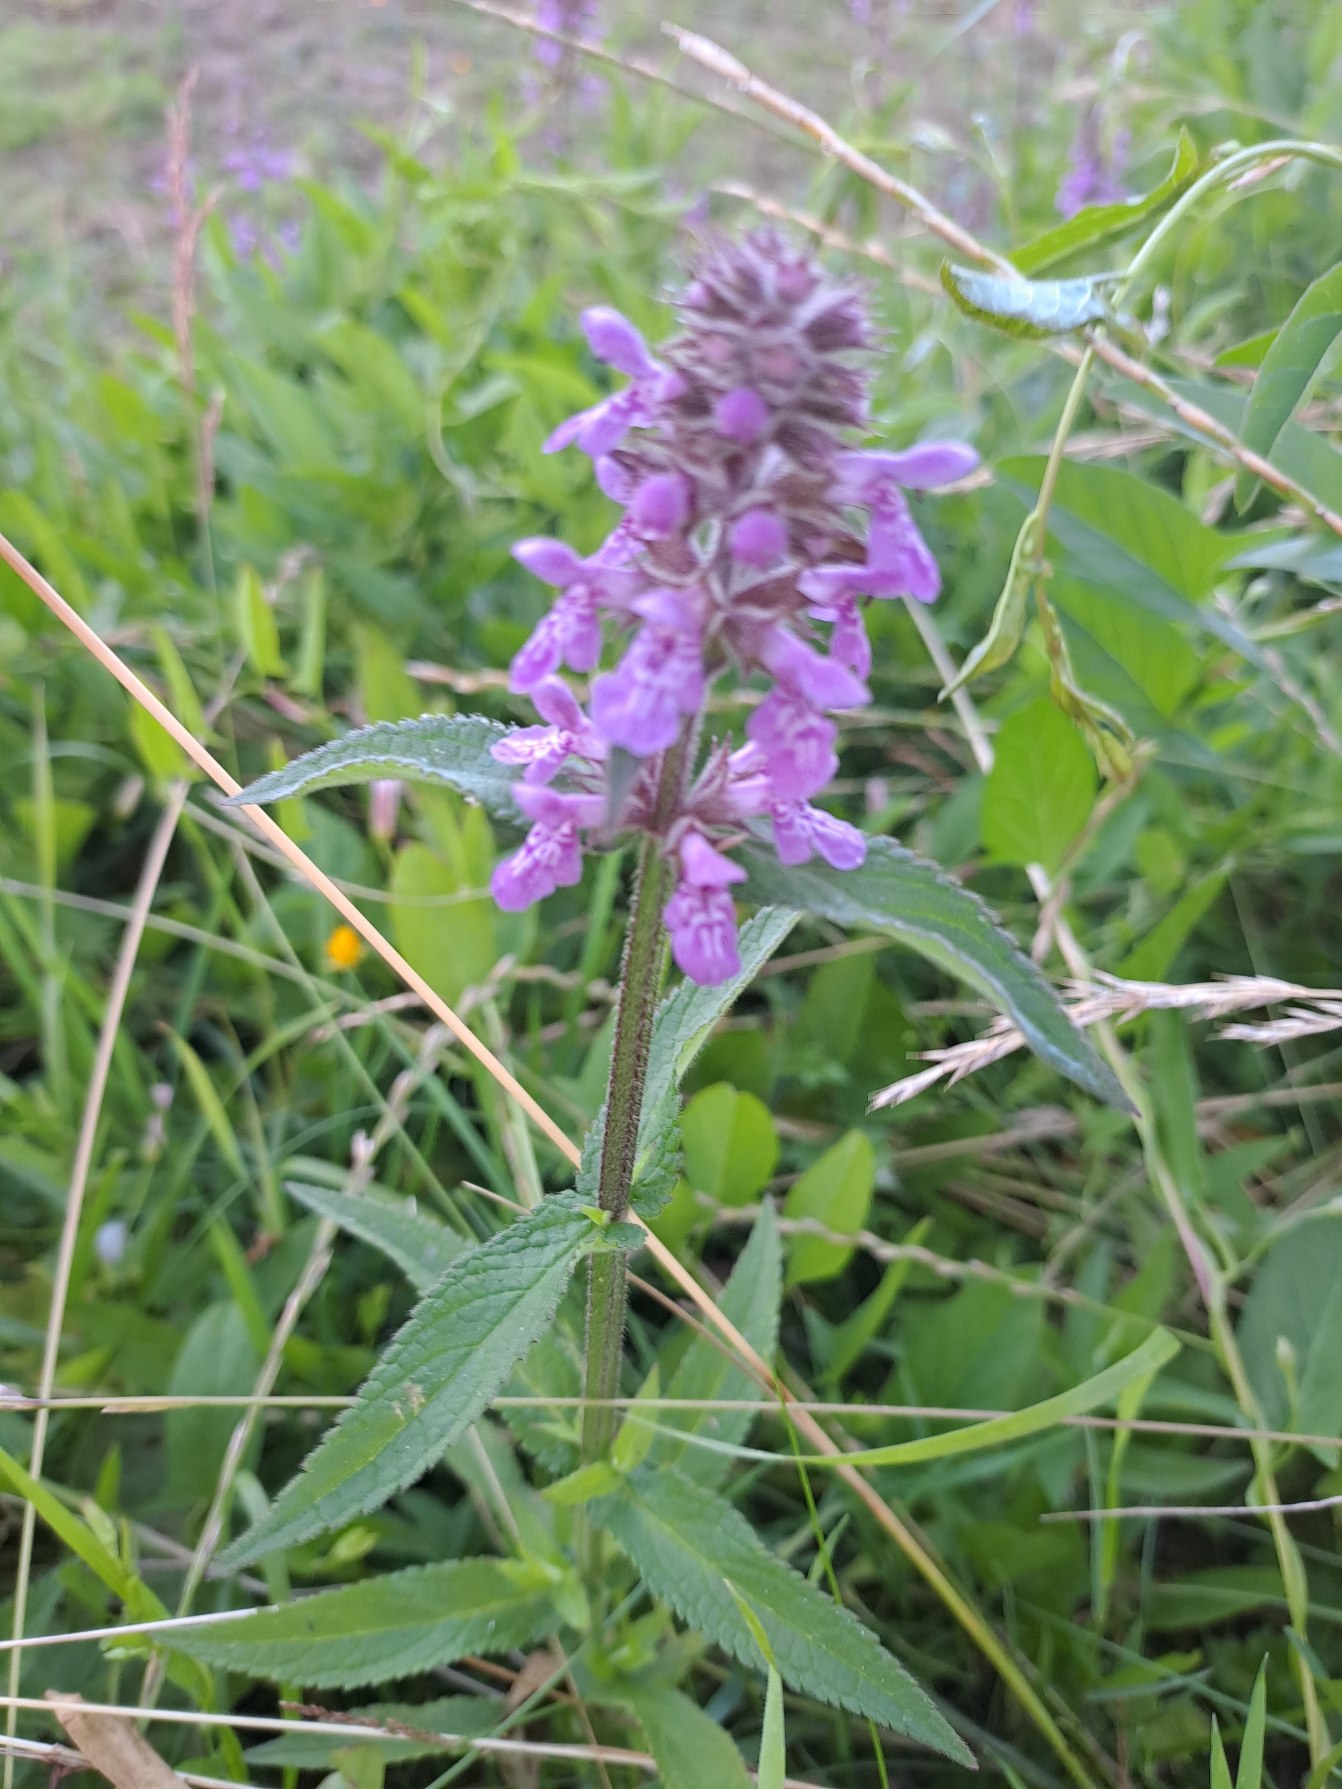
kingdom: Plantae
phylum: Tracheophyta
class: Magnoliopsida
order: Lamiales
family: Lamiaceae
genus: Stachys
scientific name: Stachys palustris
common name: Kær-galtetand
